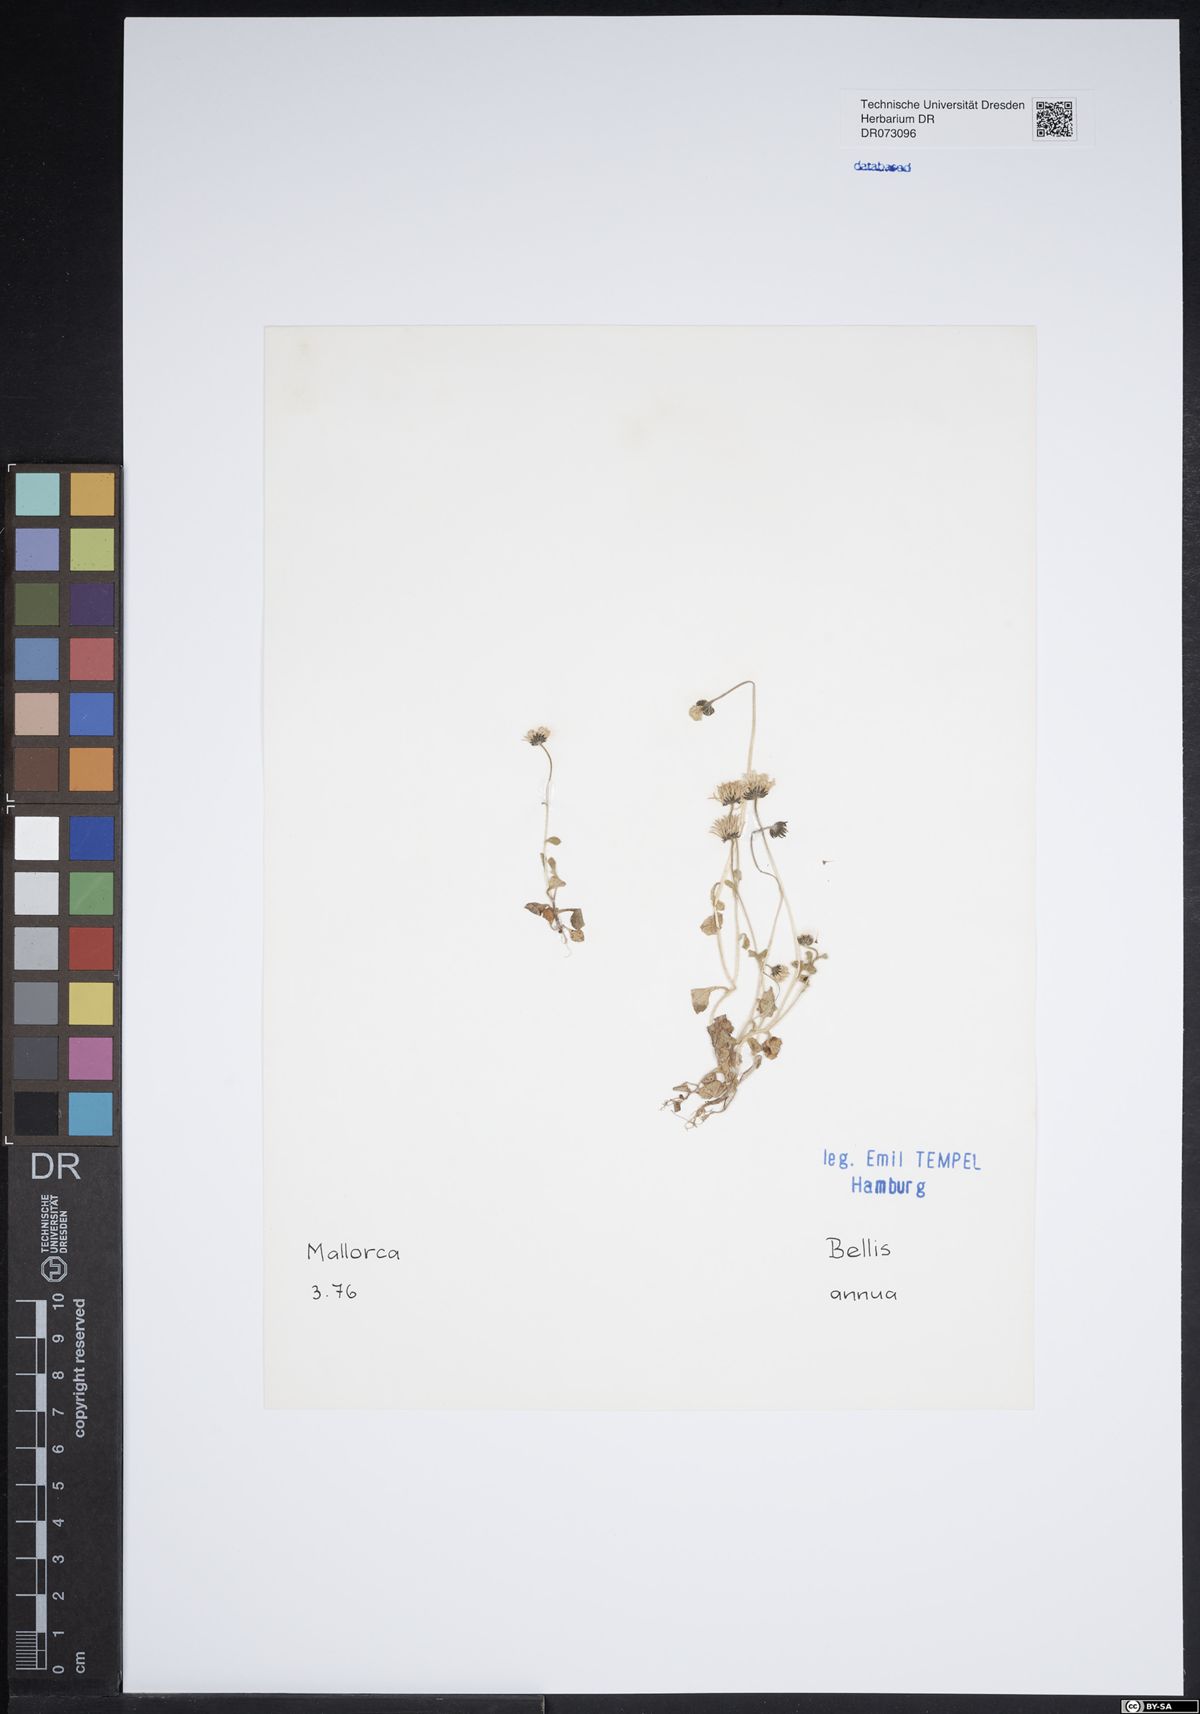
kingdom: Plantae
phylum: Tracheophyta
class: Magnoliopsida
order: Asterales
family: Asteraceae
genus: Jacobaea
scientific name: Jacobaea maritima
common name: Silver ragwort
